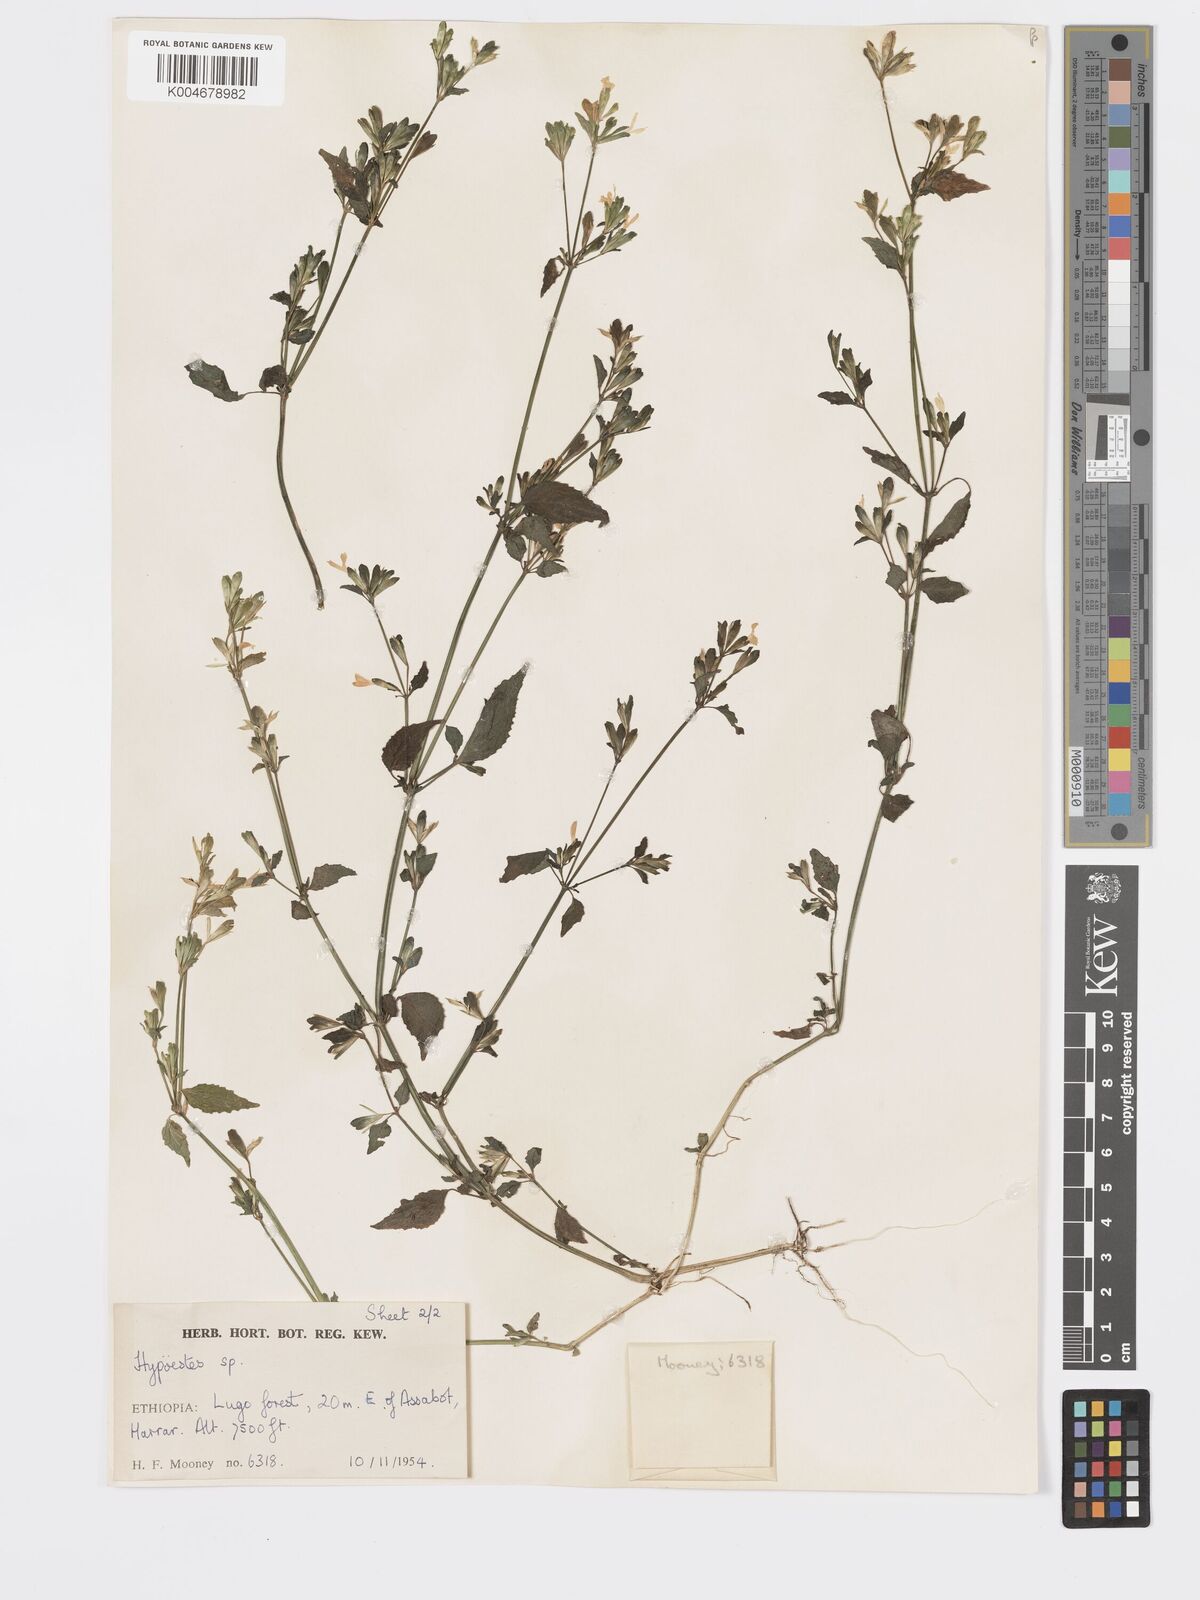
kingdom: Plantae
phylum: Tracheophyta
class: Magnoliopsida
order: Lamiales
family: Acanthaceae
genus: Hypoestes
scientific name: Hypoestes triflora
